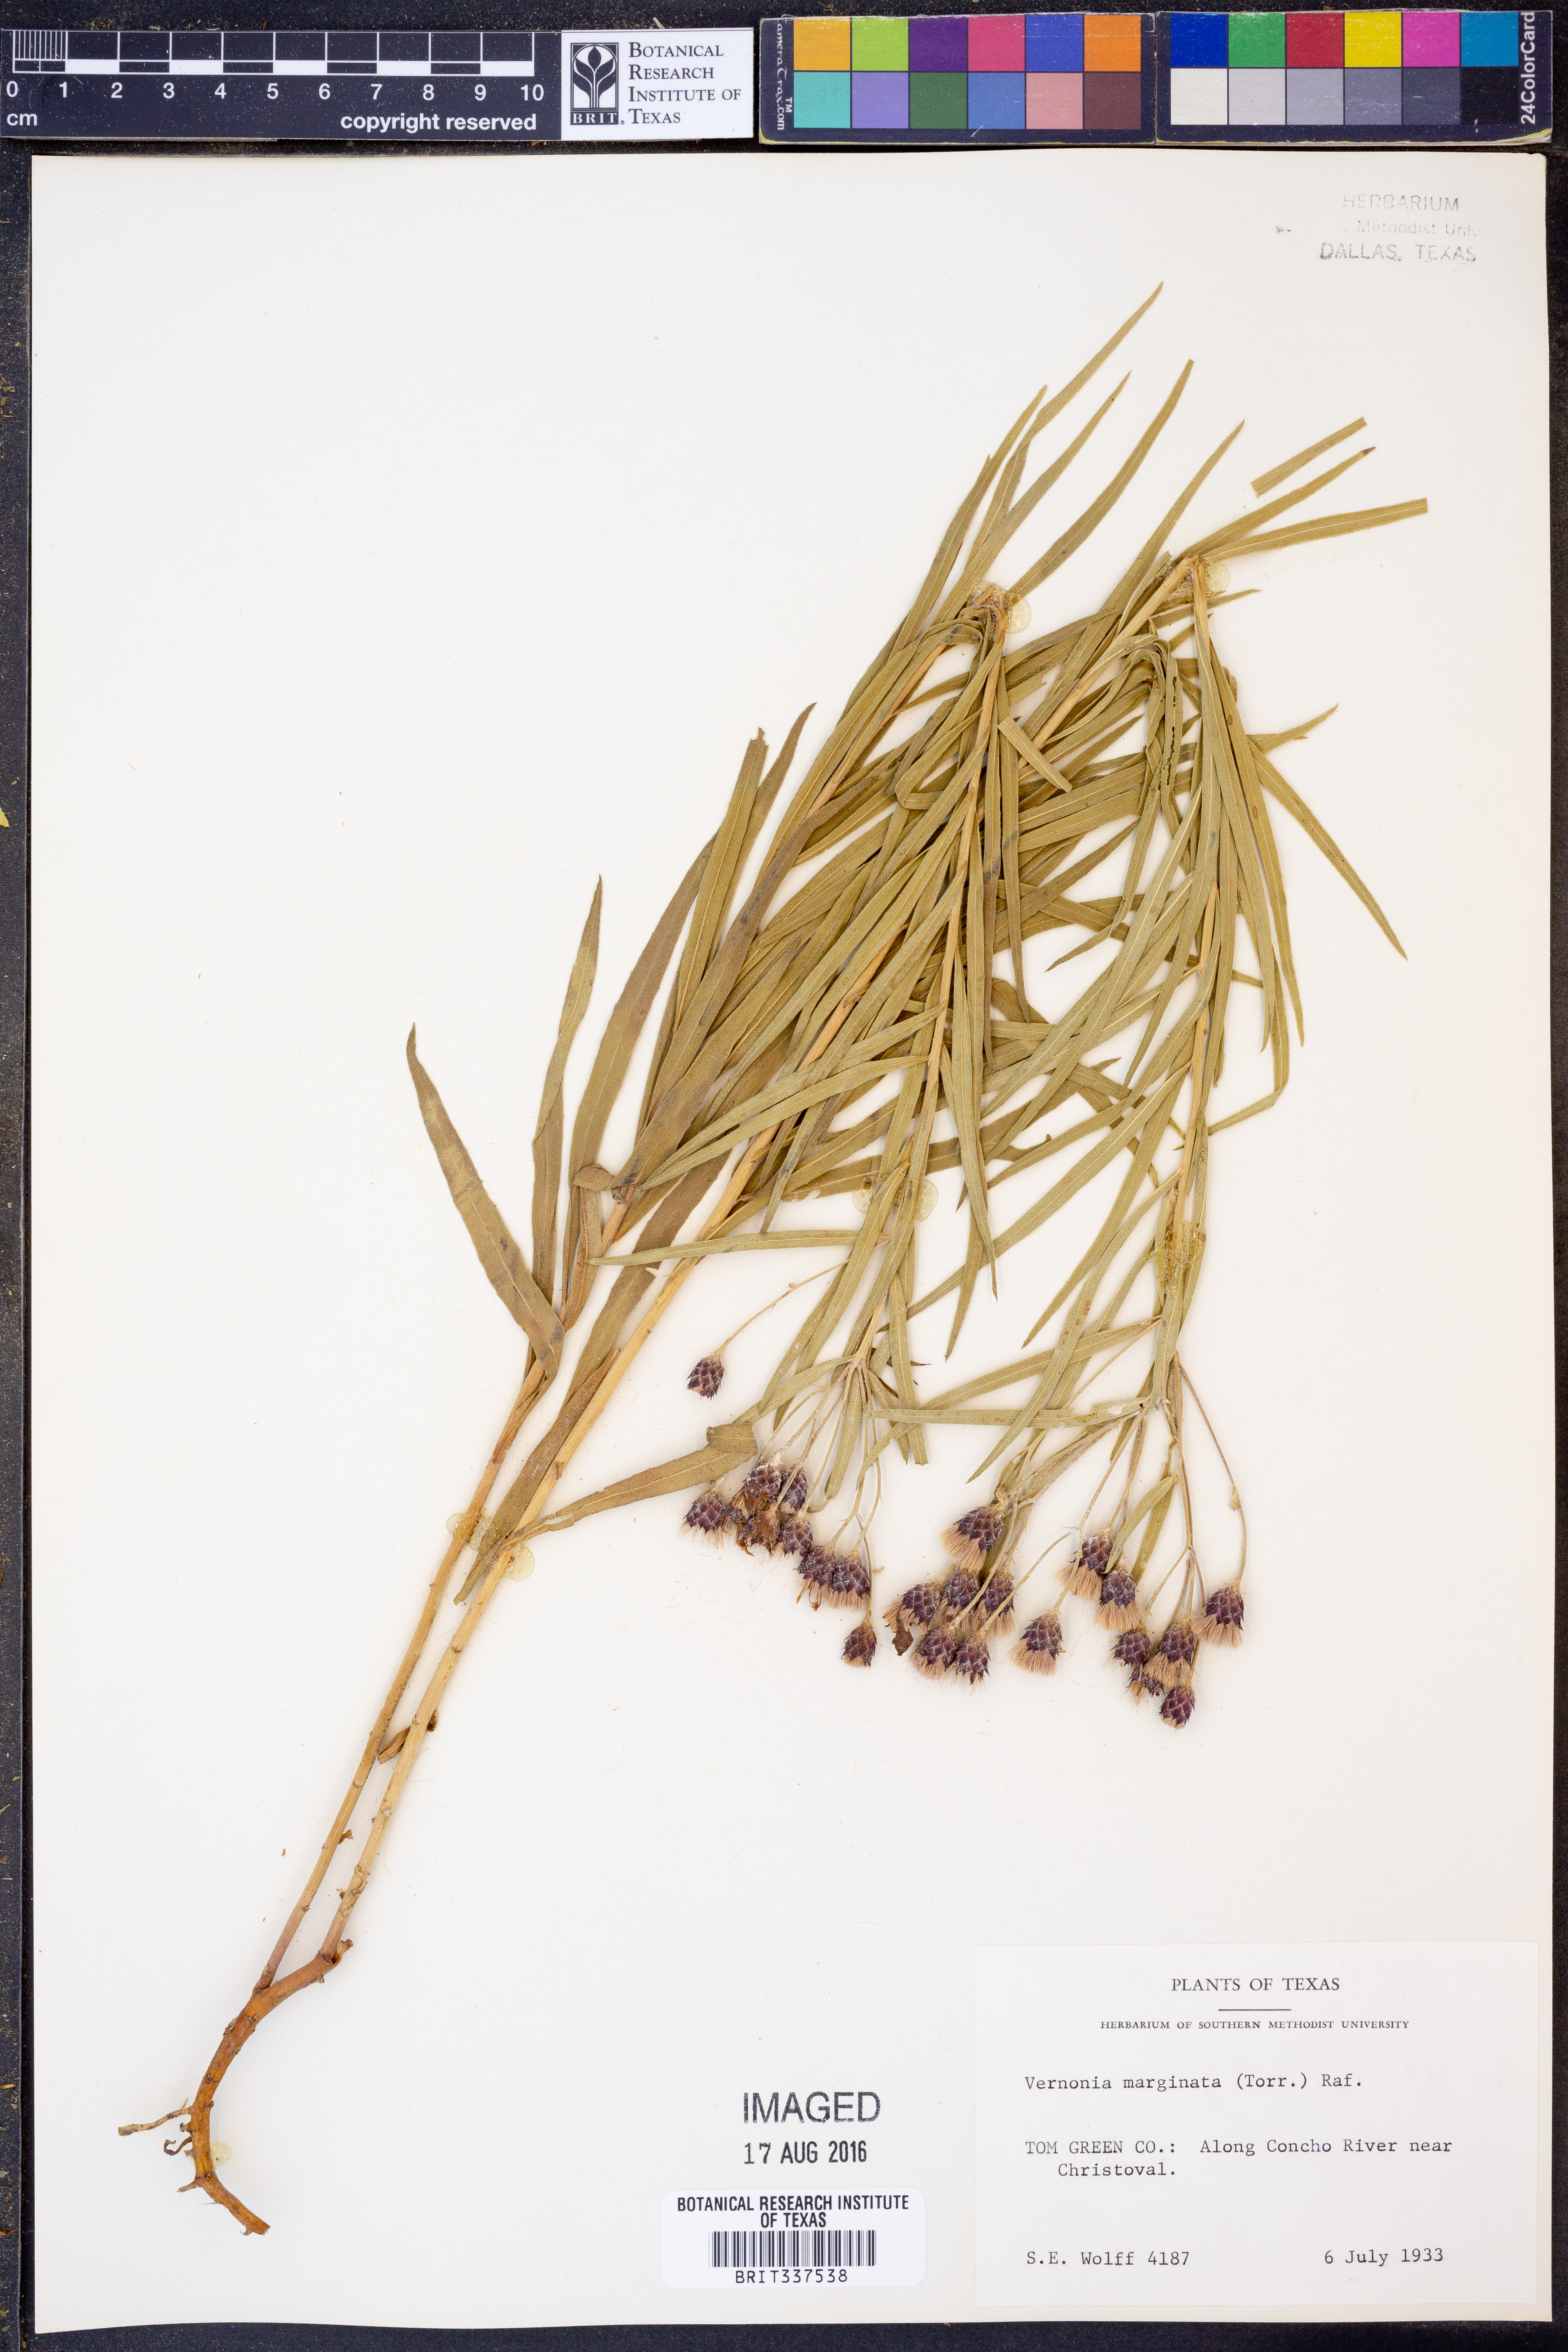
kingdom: Plantae
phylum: Tracheophyta
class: Magnoliopsida
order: Asterales
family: Asteraceae
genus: Vernonia
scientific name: Vernonia marginata
